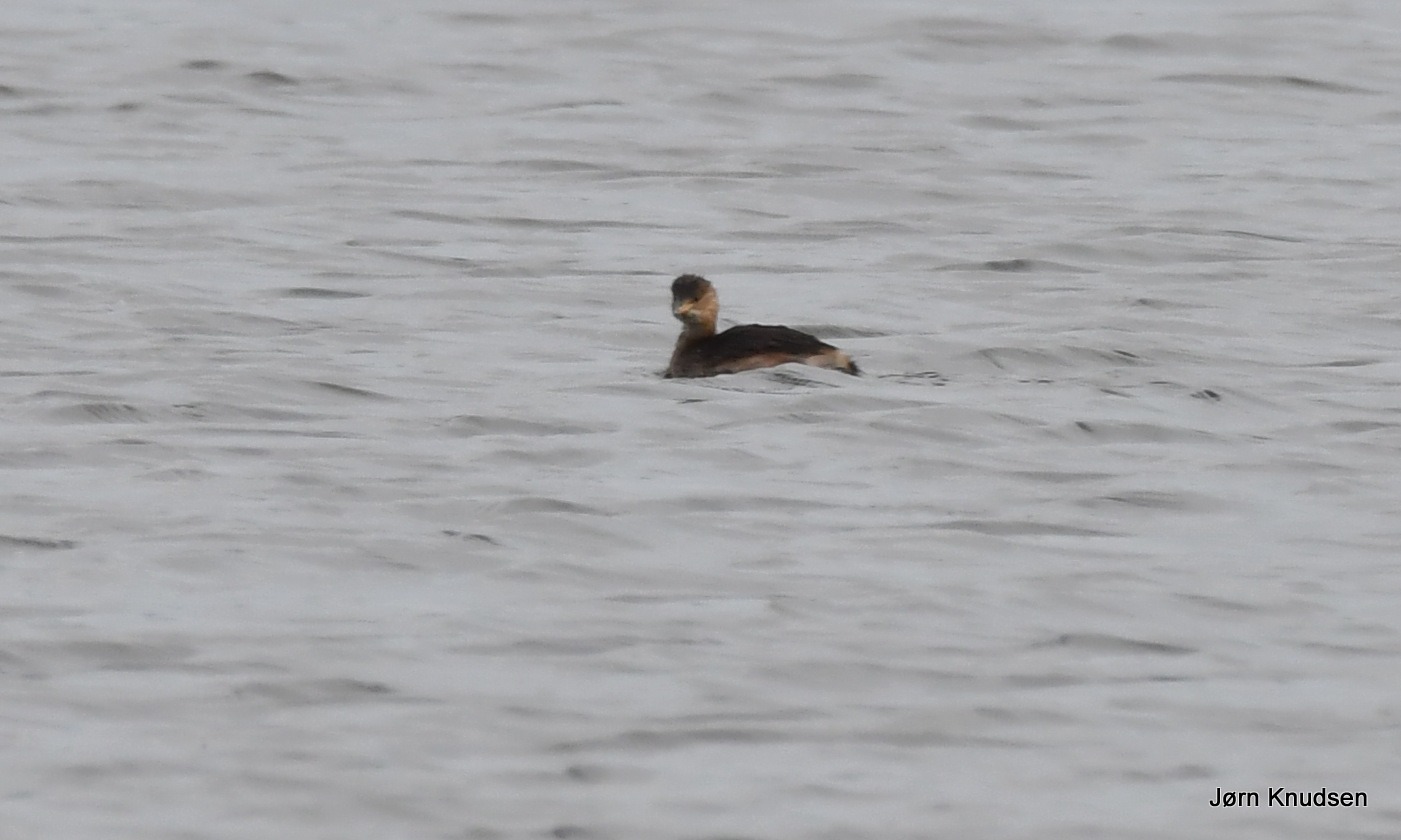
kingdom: Animalia
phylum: Chordata
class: Aves
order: Podicipediformes
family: Podicipedidae
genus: Tachybaptus
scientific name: Tachybaptus ruficollis
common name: Lille lappedykker
